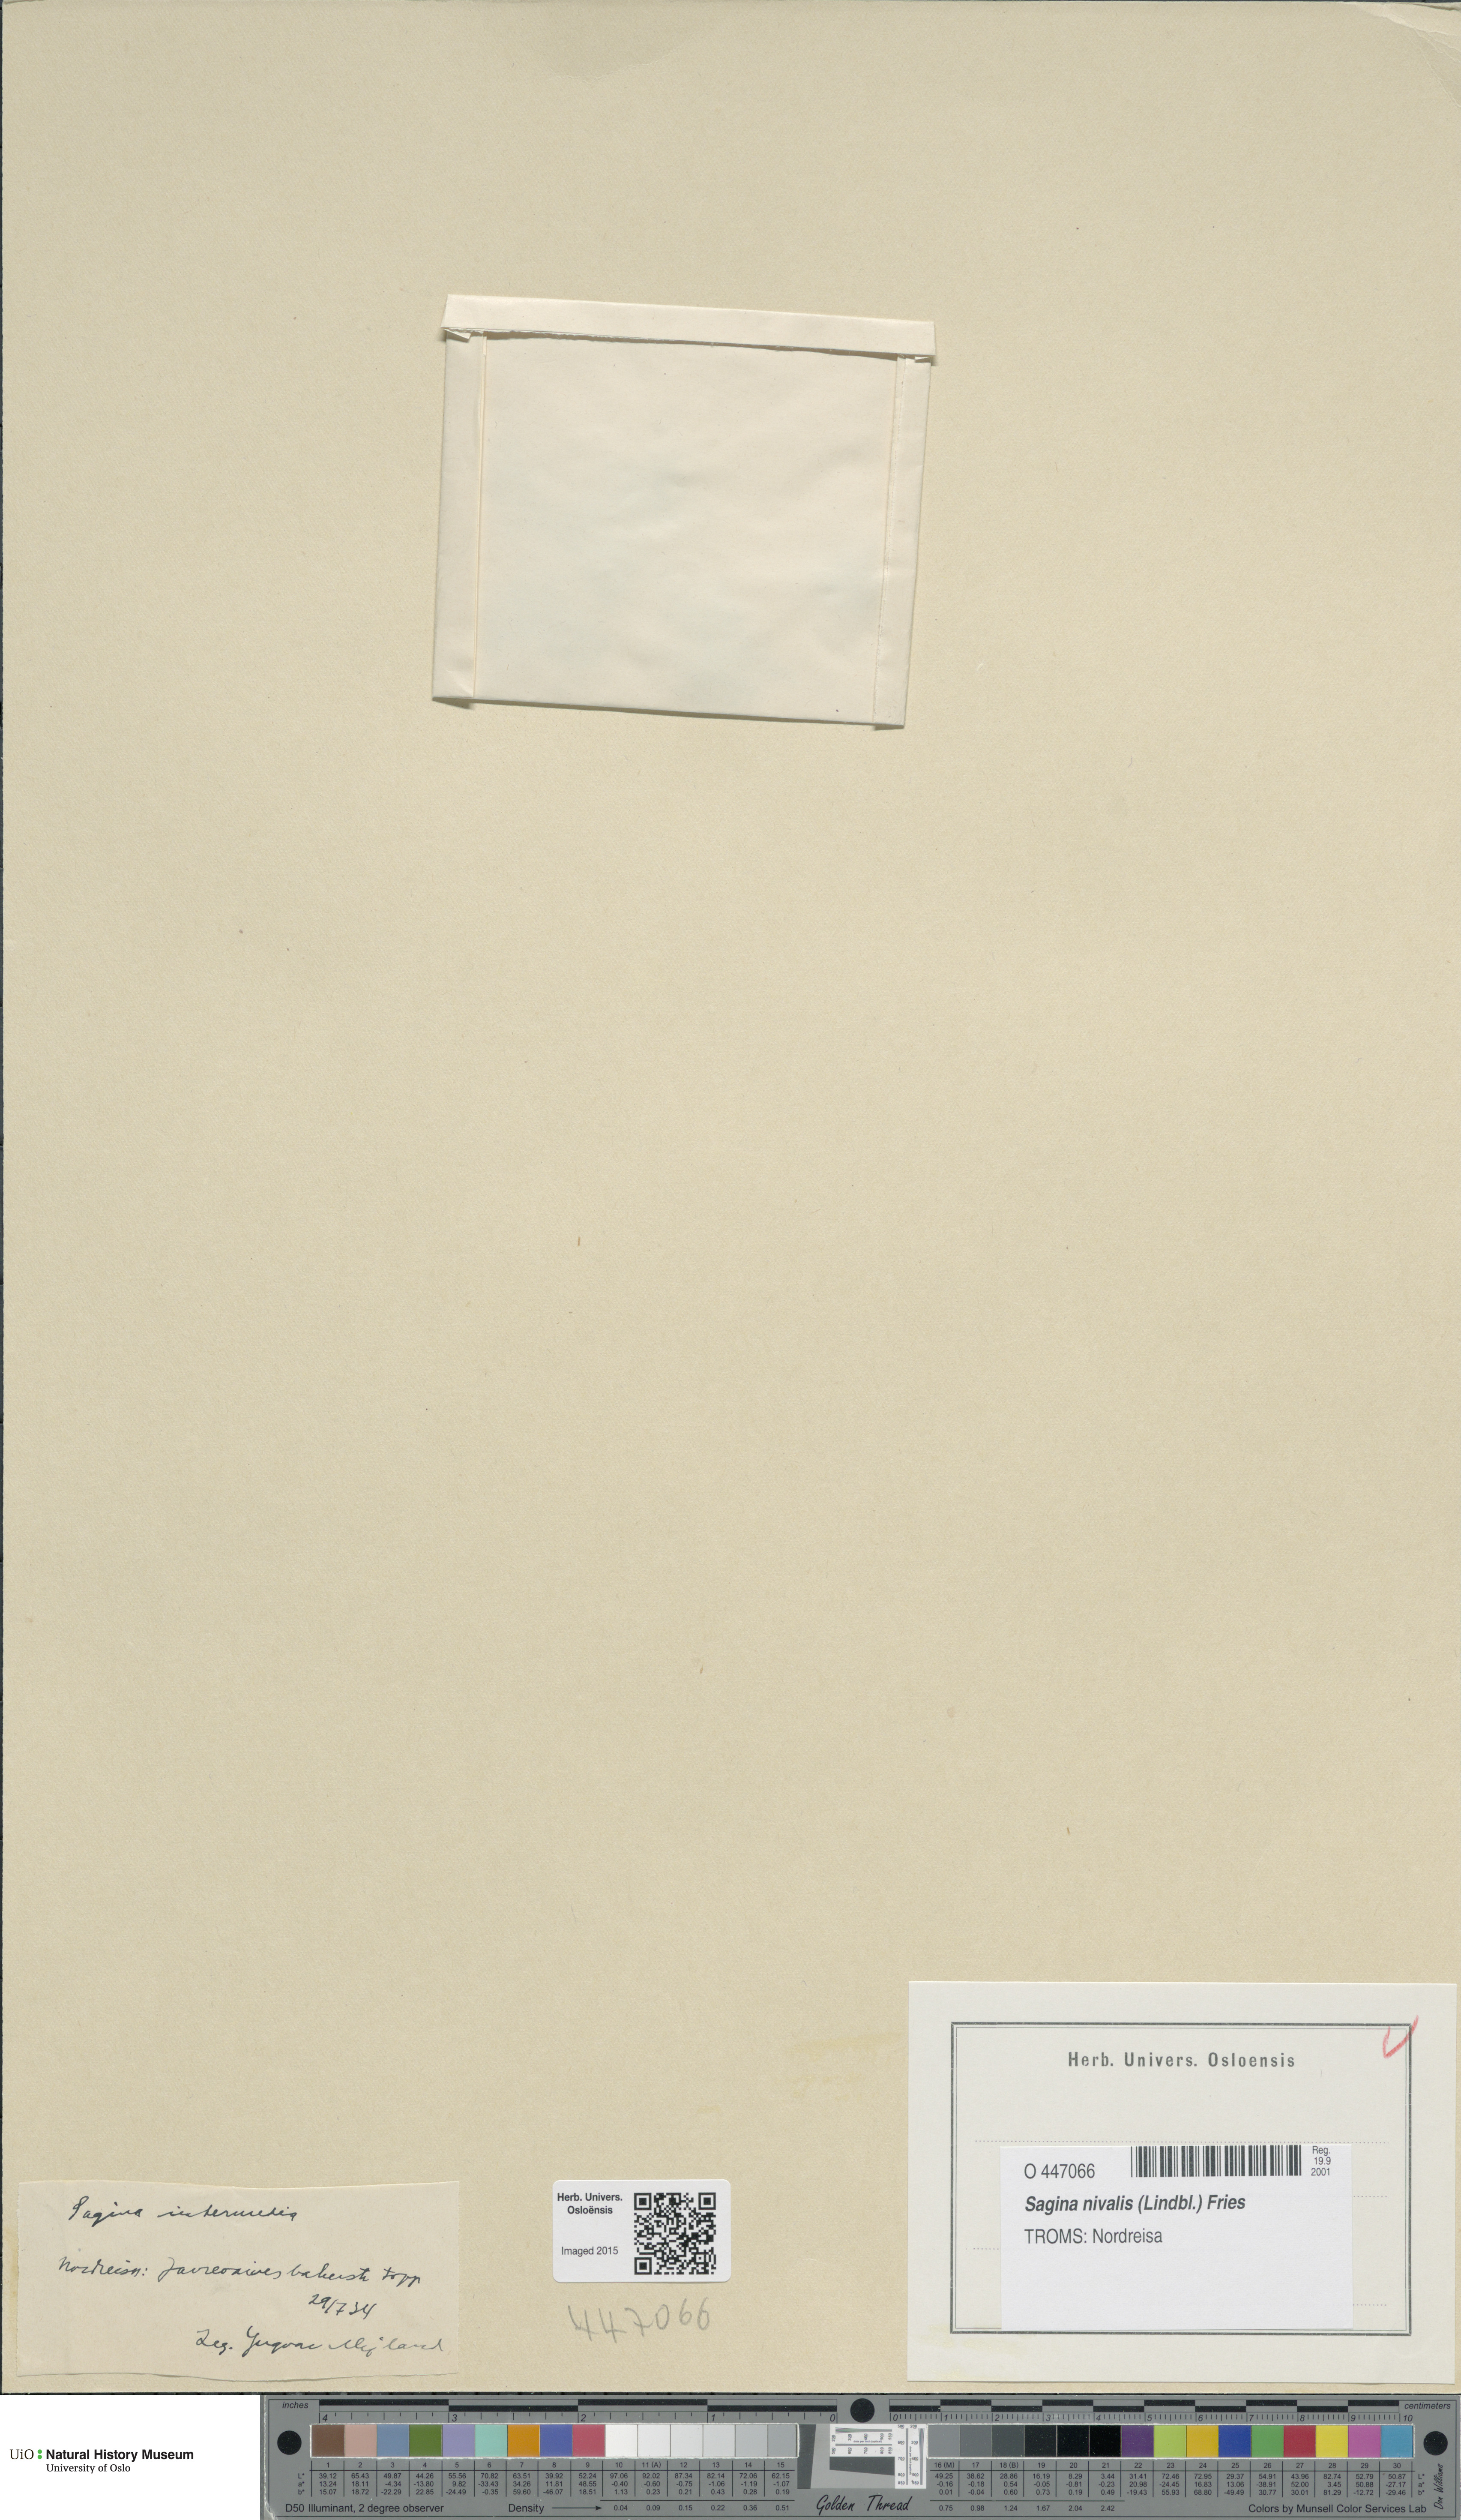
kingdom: Plantae
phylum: Tracheophyta
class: Magnoliopsida
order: Caryophyllales
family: Caryophyllaceae
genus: Sagina
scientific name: Sagina nivalis
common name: Snow pearlwort
